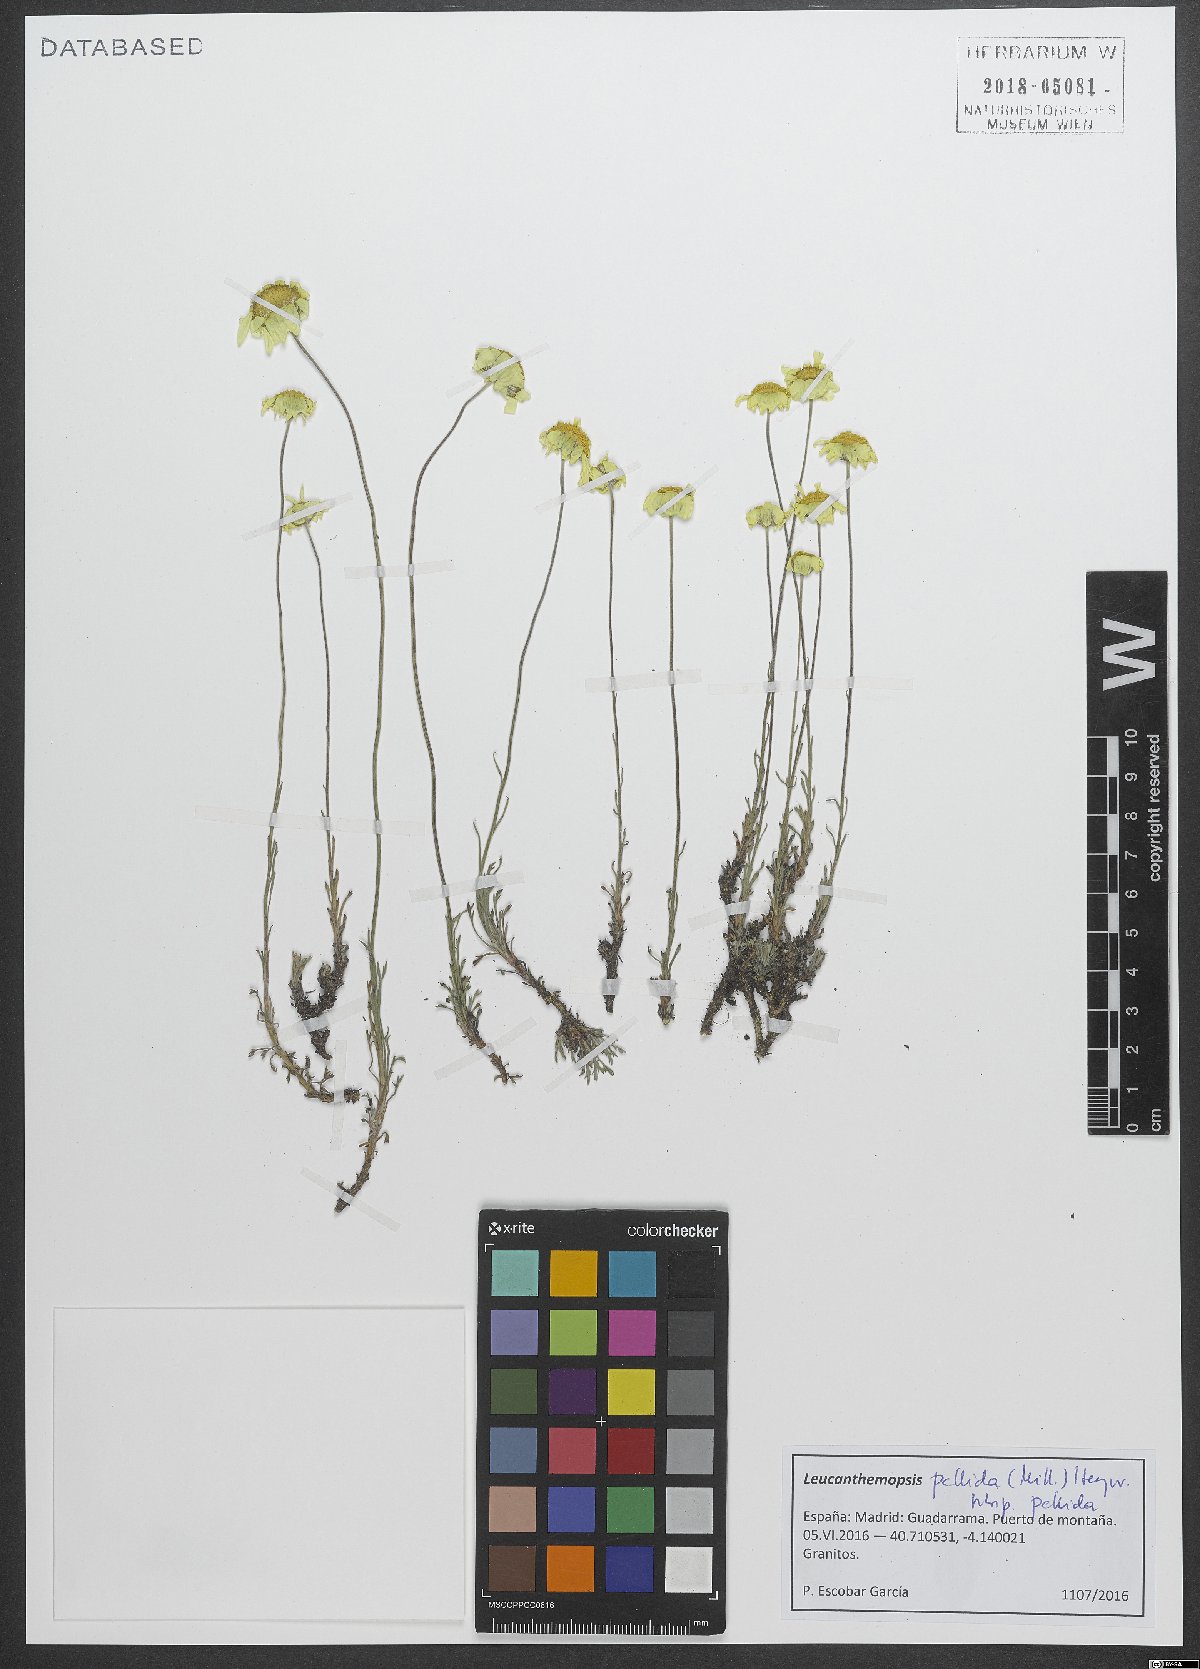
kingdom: Plantae
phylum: Tracheophyta
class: Magnoliopsida
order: Asterales
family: Asteraceae
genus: Leucanthemopsis
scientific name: Leucanthemopsis pallida
